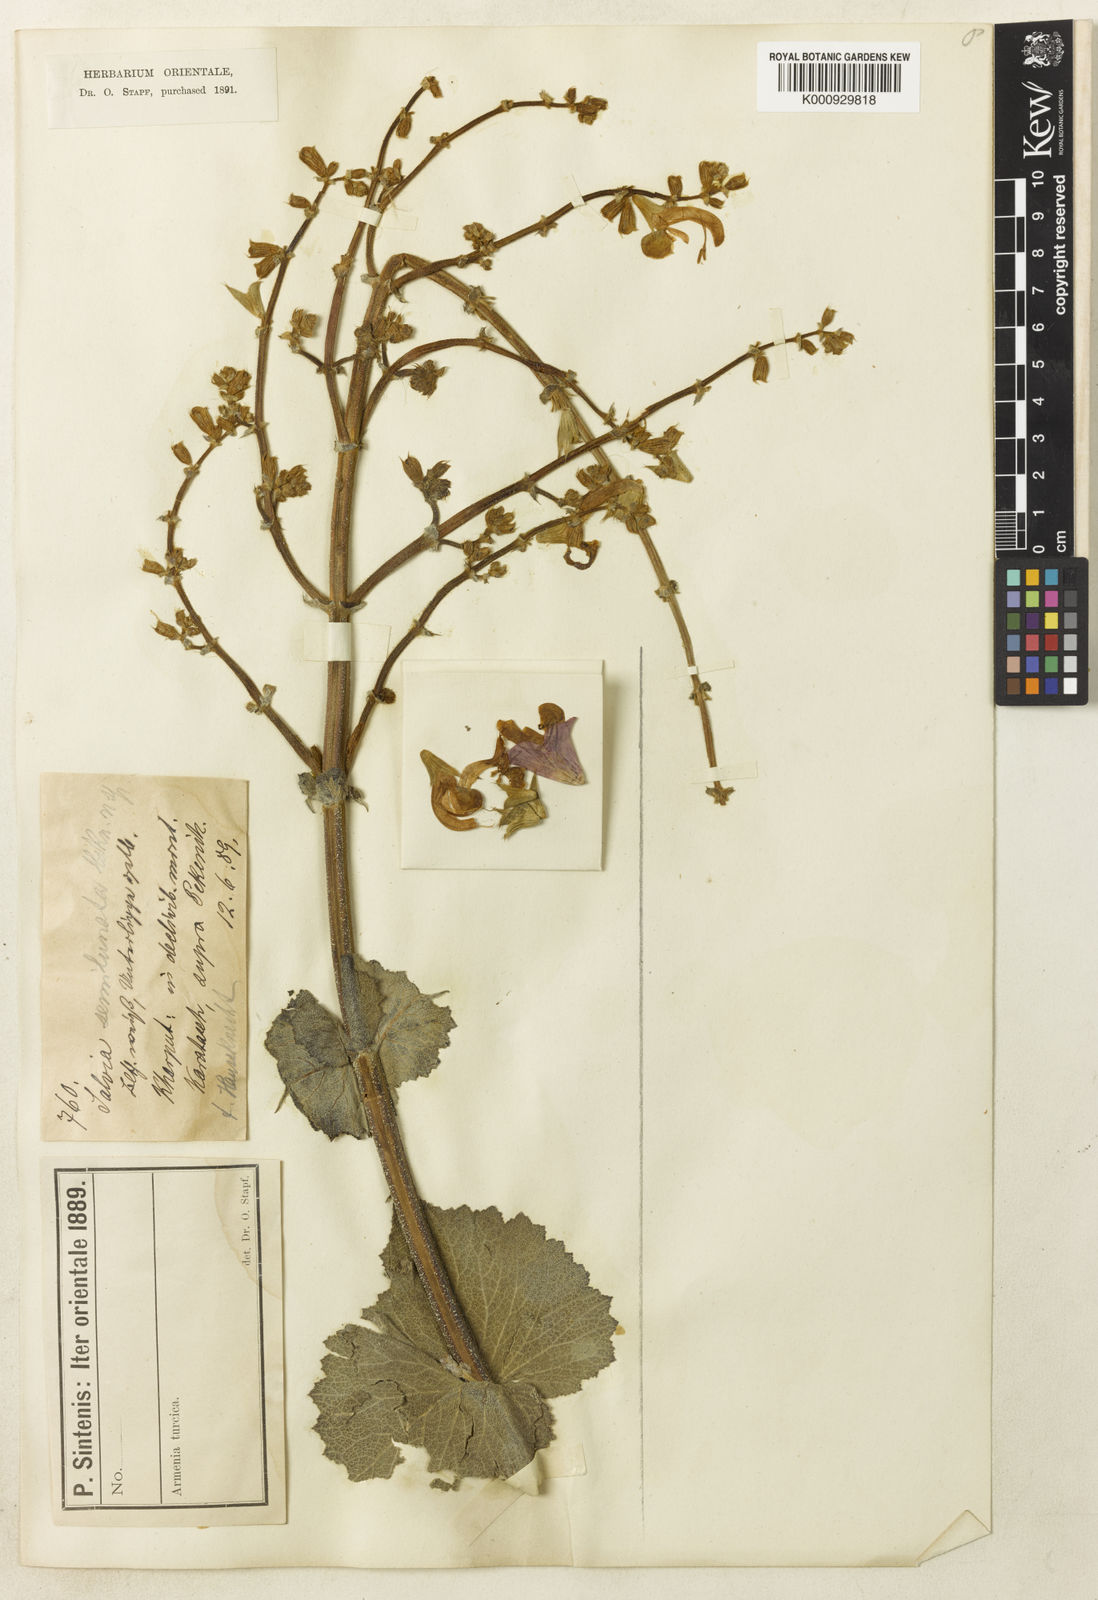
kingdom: Plantae
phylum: Tracheophyta
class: Magnoliopsida
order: Lamiales
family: Lamiaceae
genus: Salvia
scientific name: Salvia
